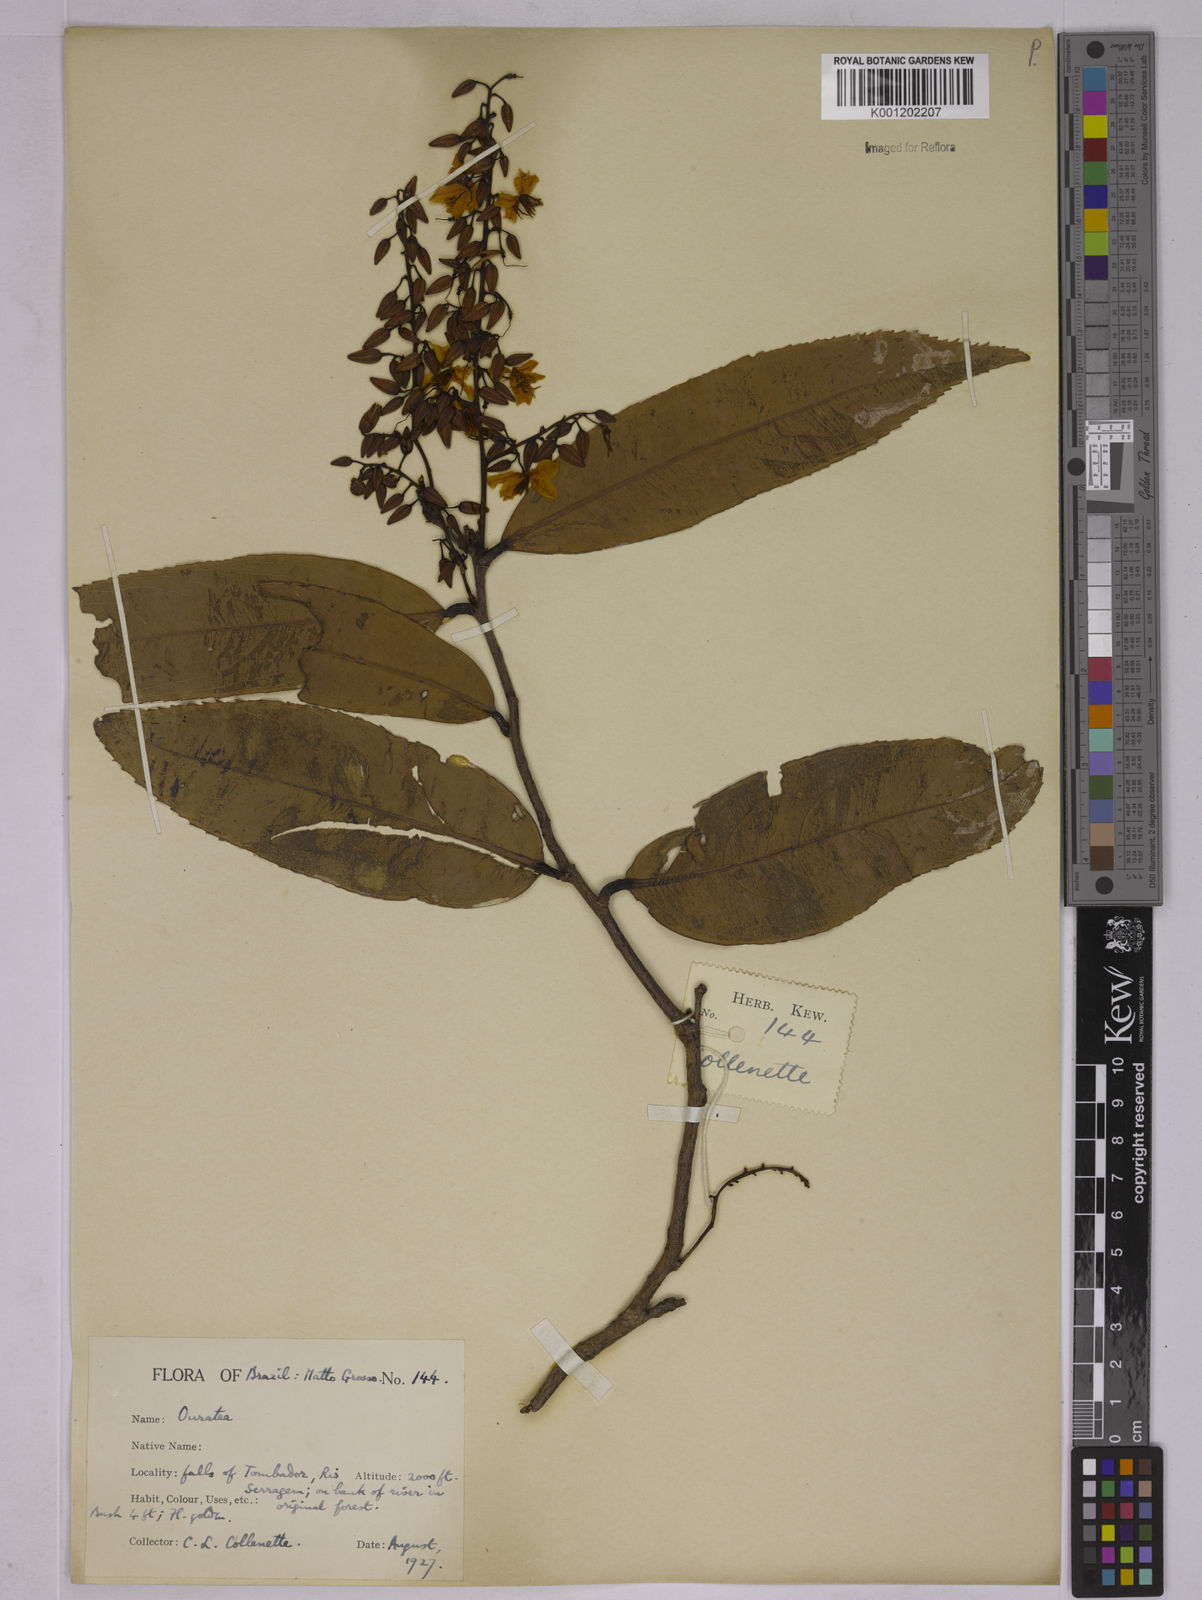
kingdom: Plantae
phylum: Tracheophyta
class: Magnoliopsida
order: Malpighiales
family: Ochnaceae
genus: Ouratea
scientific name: Ouratea
